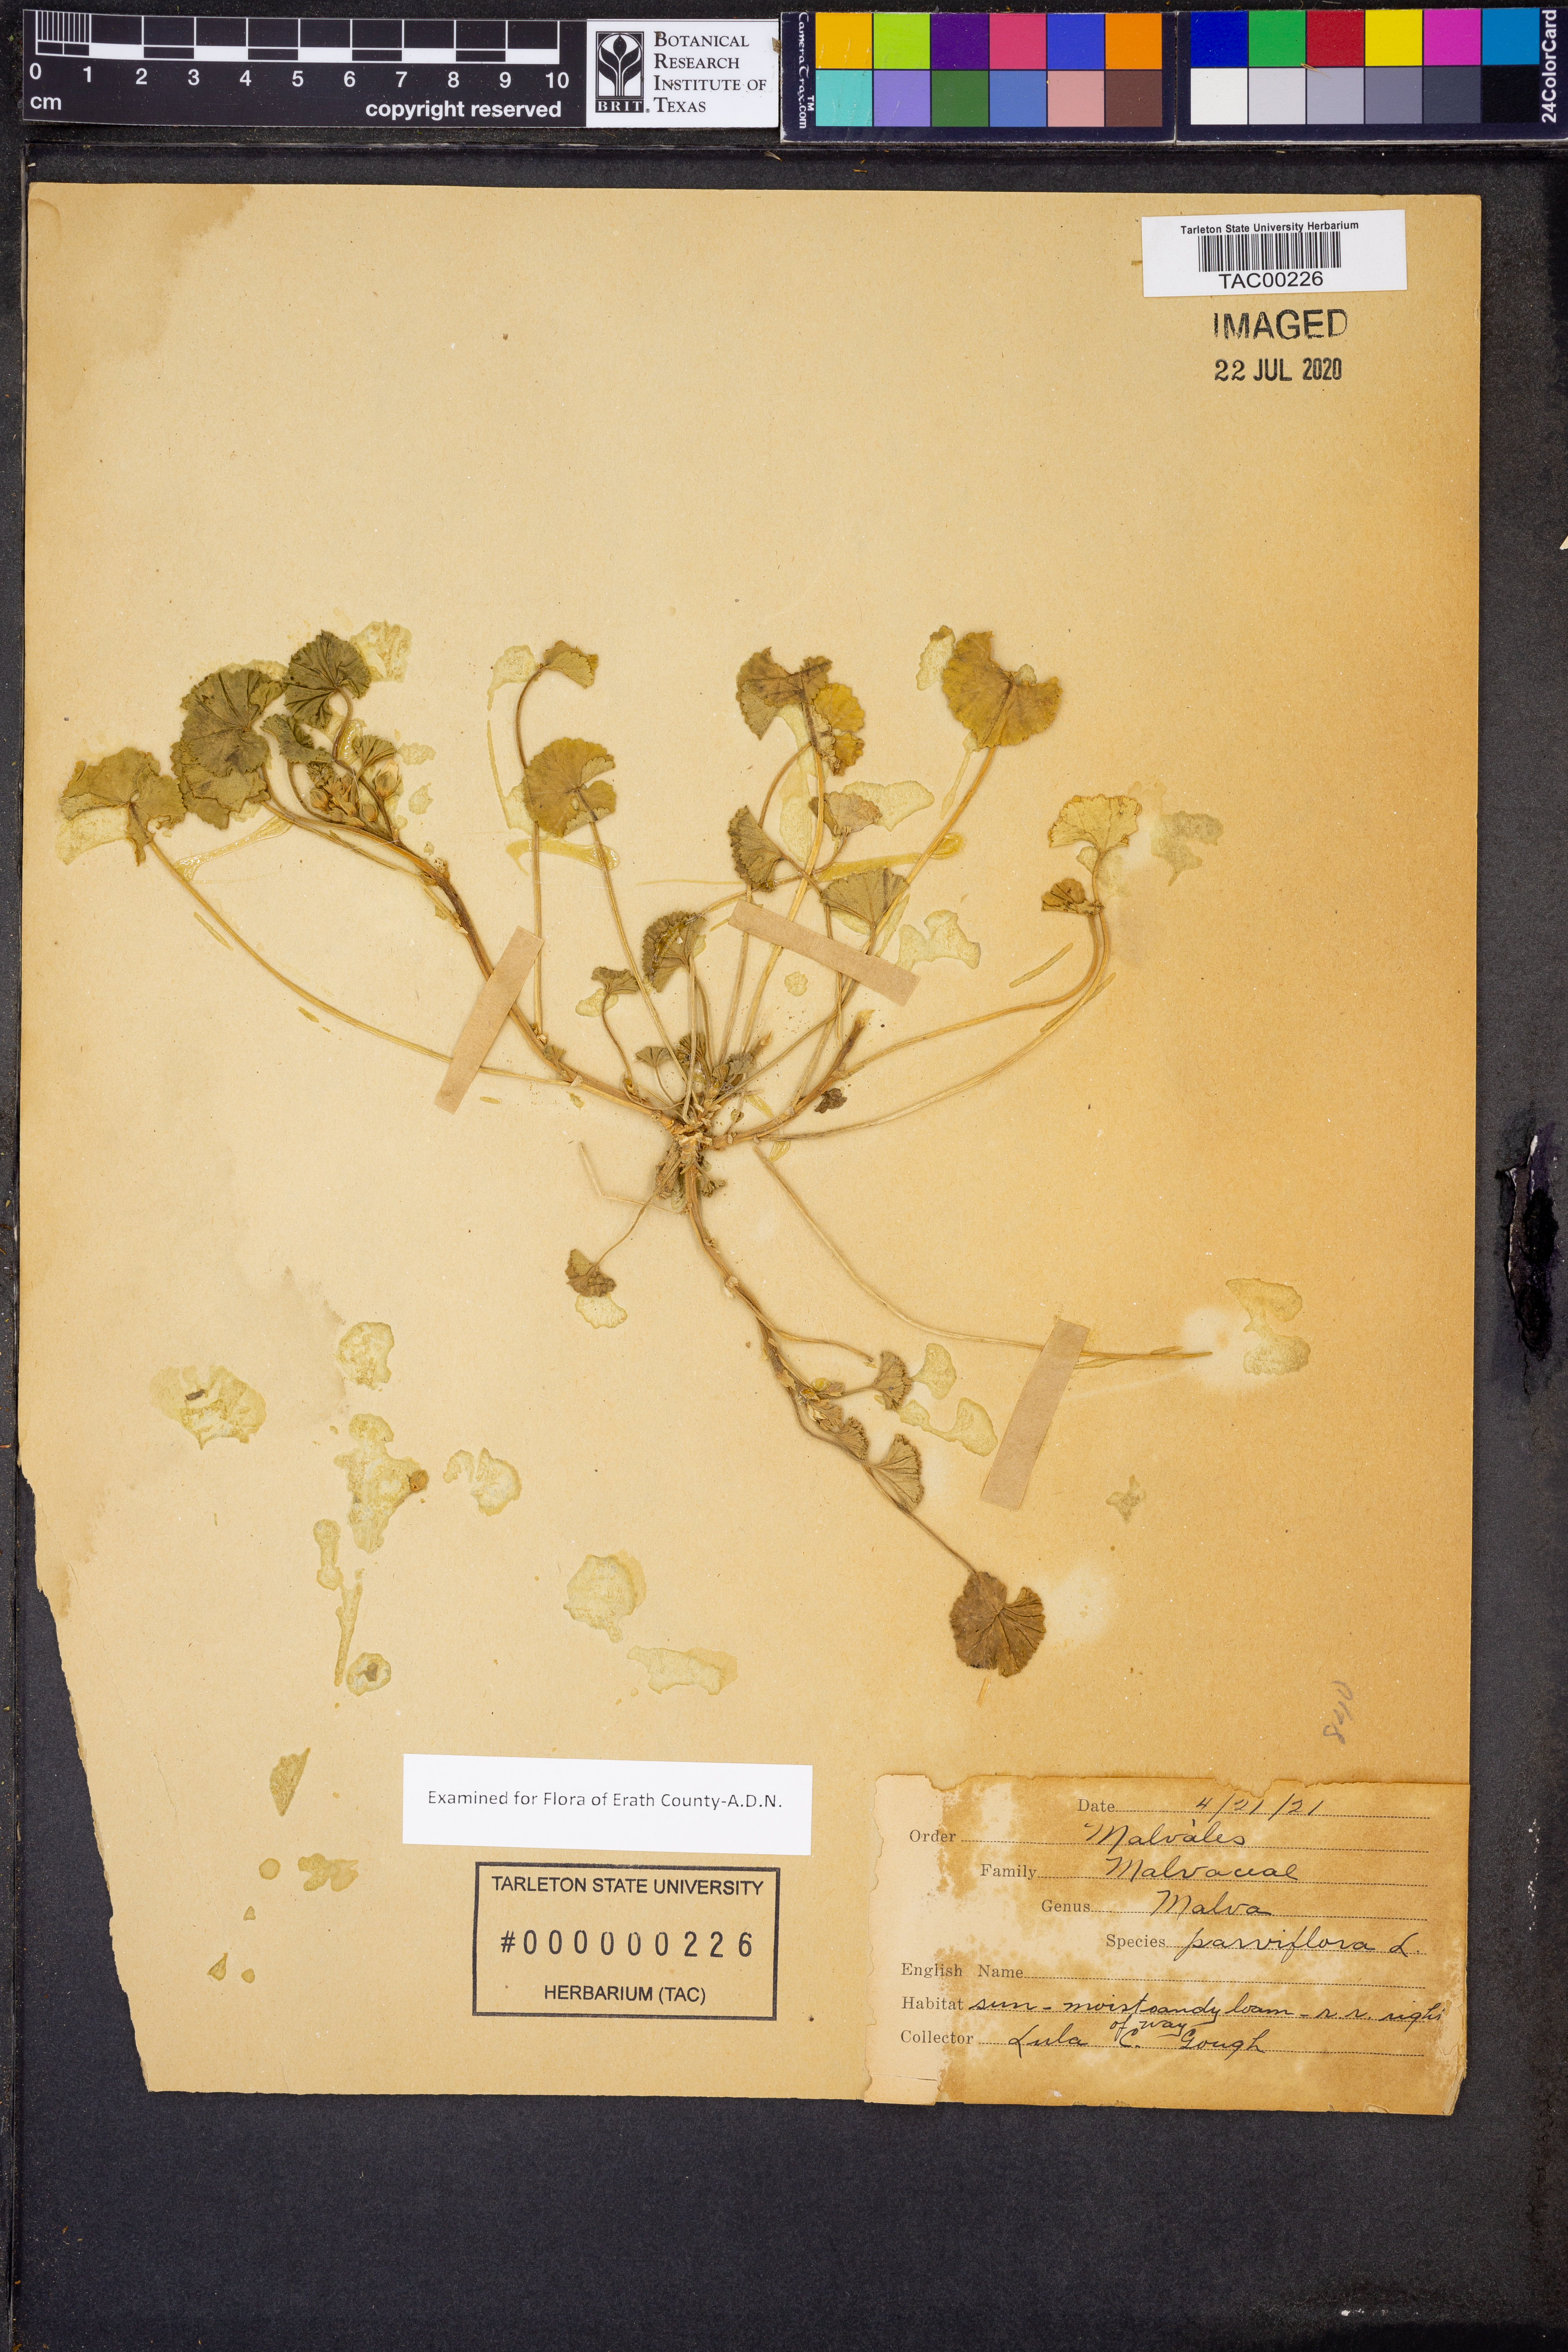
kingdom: Plantae
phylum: Tracheophyta
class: Magnoliopsida
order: Malvales
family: Malvaceae
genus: Malva
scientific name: Malva parviflora
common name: Least mallow
